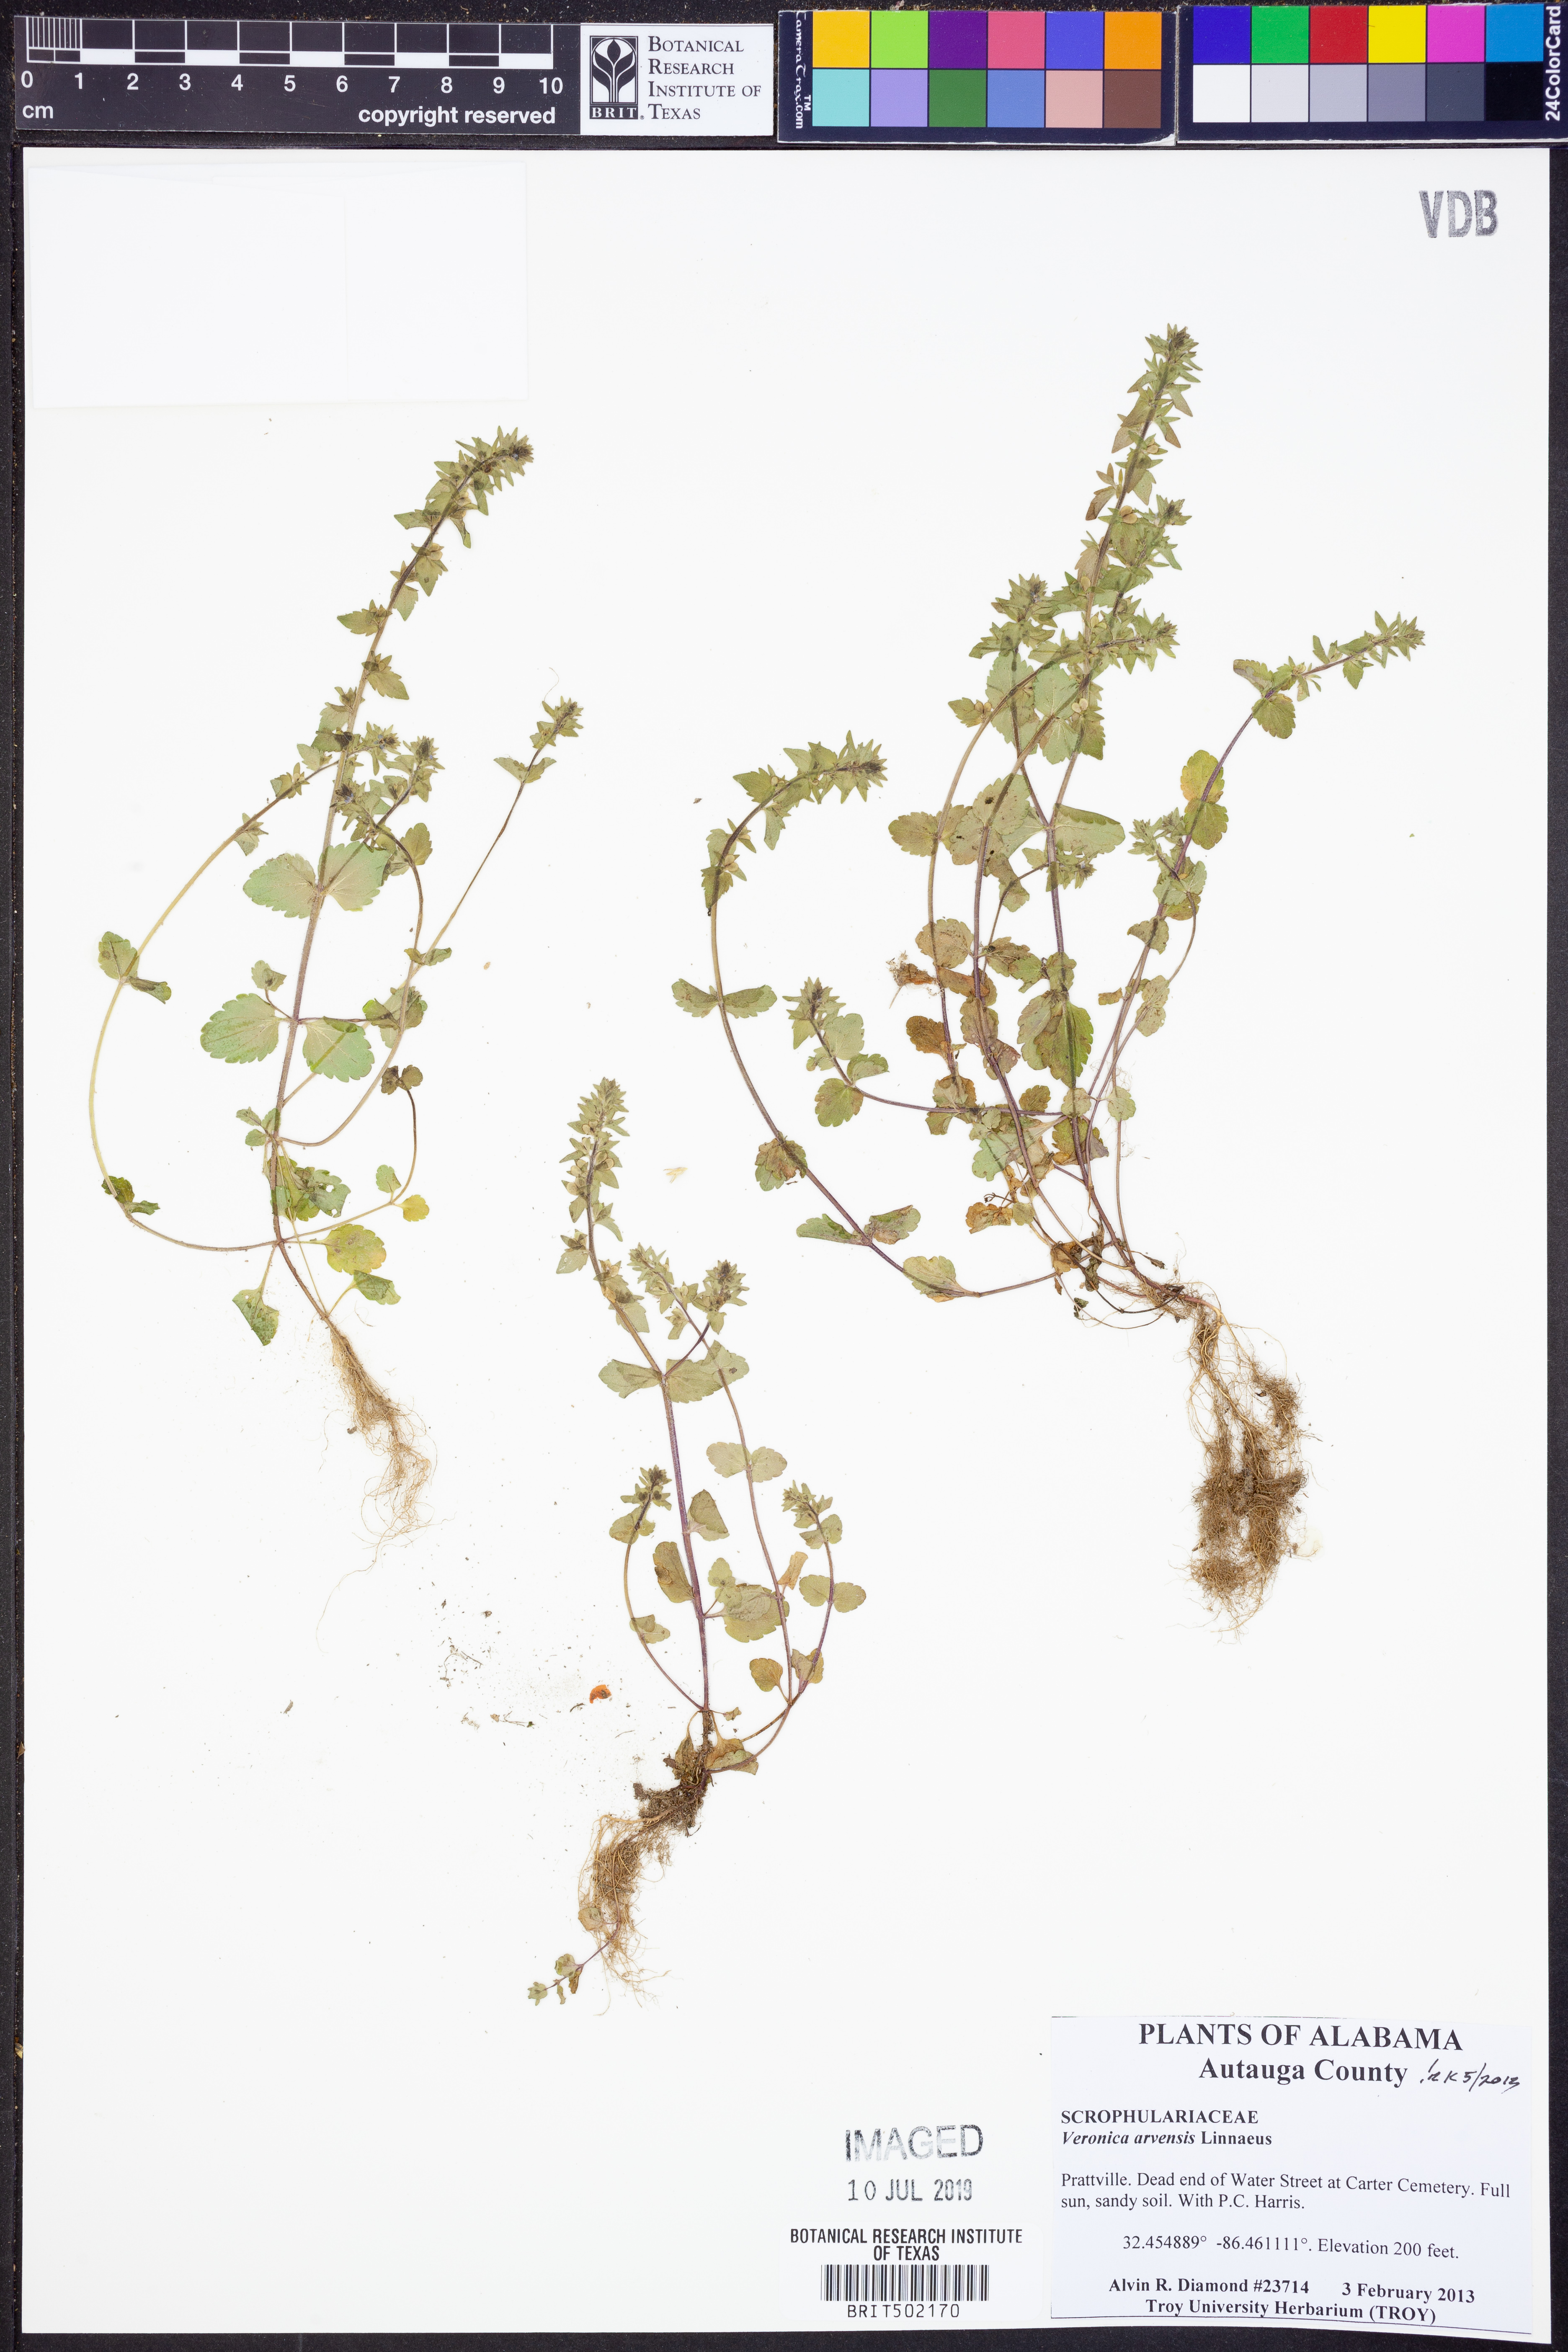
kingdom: Plantae
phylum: Tracheophyta
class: Magnoliopsida
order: Lamiales
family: Plantaginaceae
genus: Veronica
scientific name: Veronica arvensis
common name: Corn speedwell
